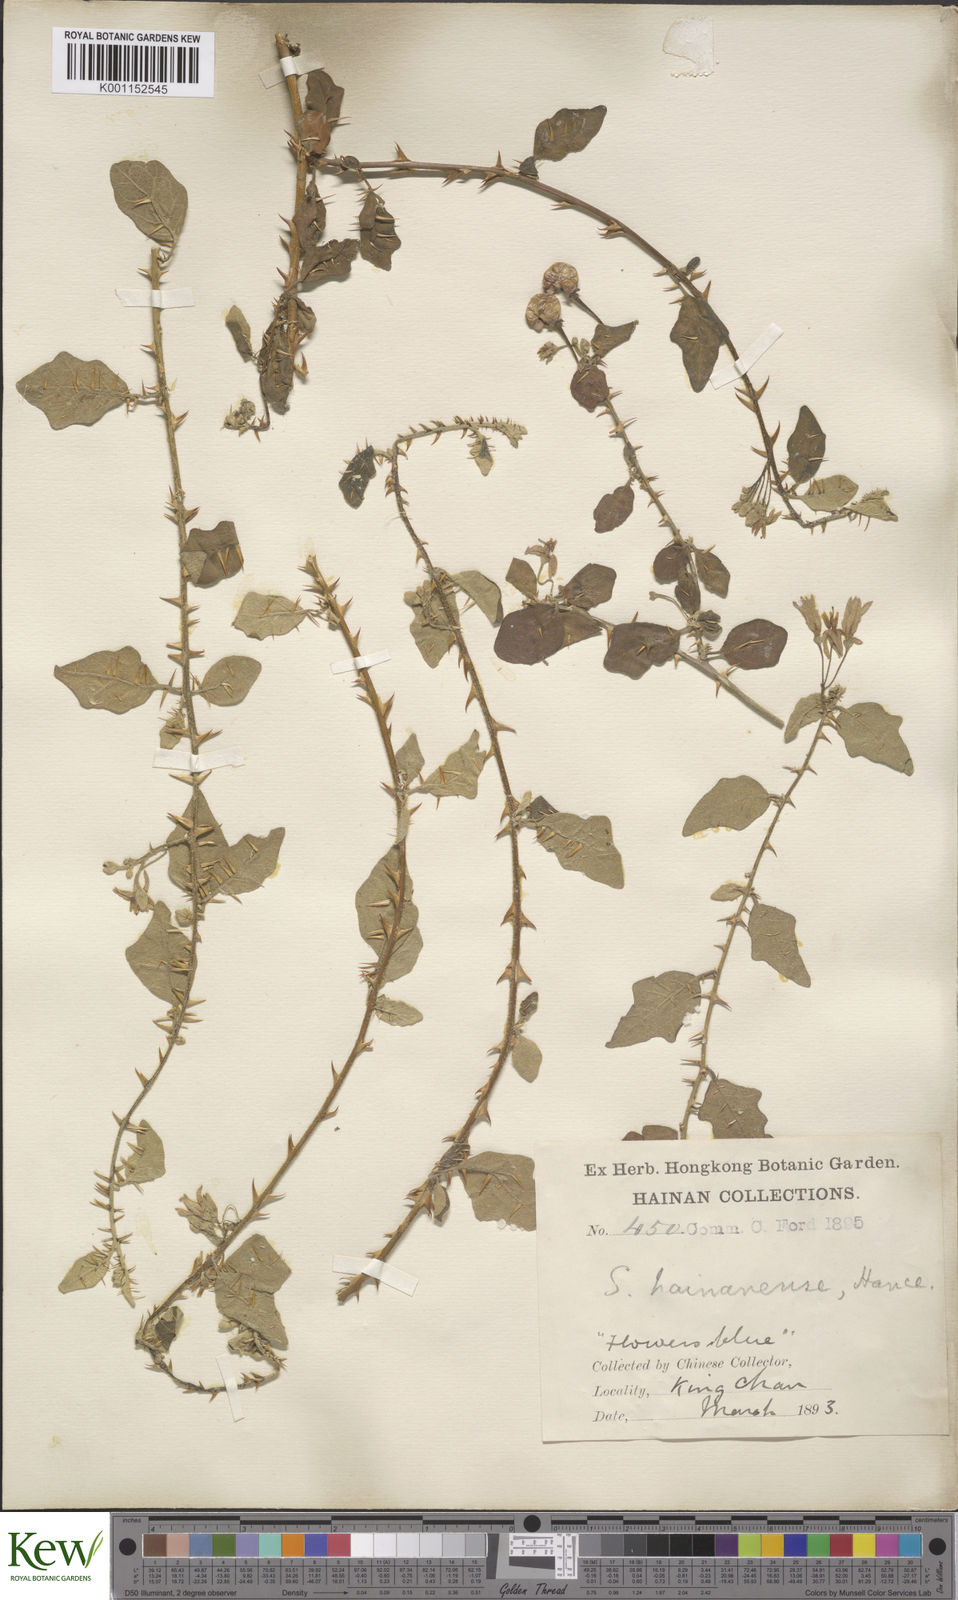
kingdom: Plantae
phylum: Tracheophyta
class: Magnoliopsida
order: Solanales
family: Solanaceae
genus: Solanum
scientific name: Solanum procumbens
